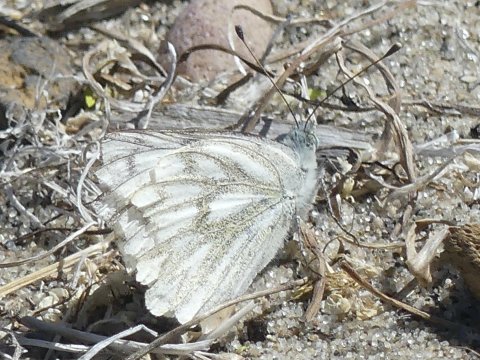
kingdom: Animalia
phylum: Arthropoda
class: Insecta
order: Lepidoptera
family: Pieridae
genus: Pontia
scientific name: Pontia occidentalis
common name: Western White
